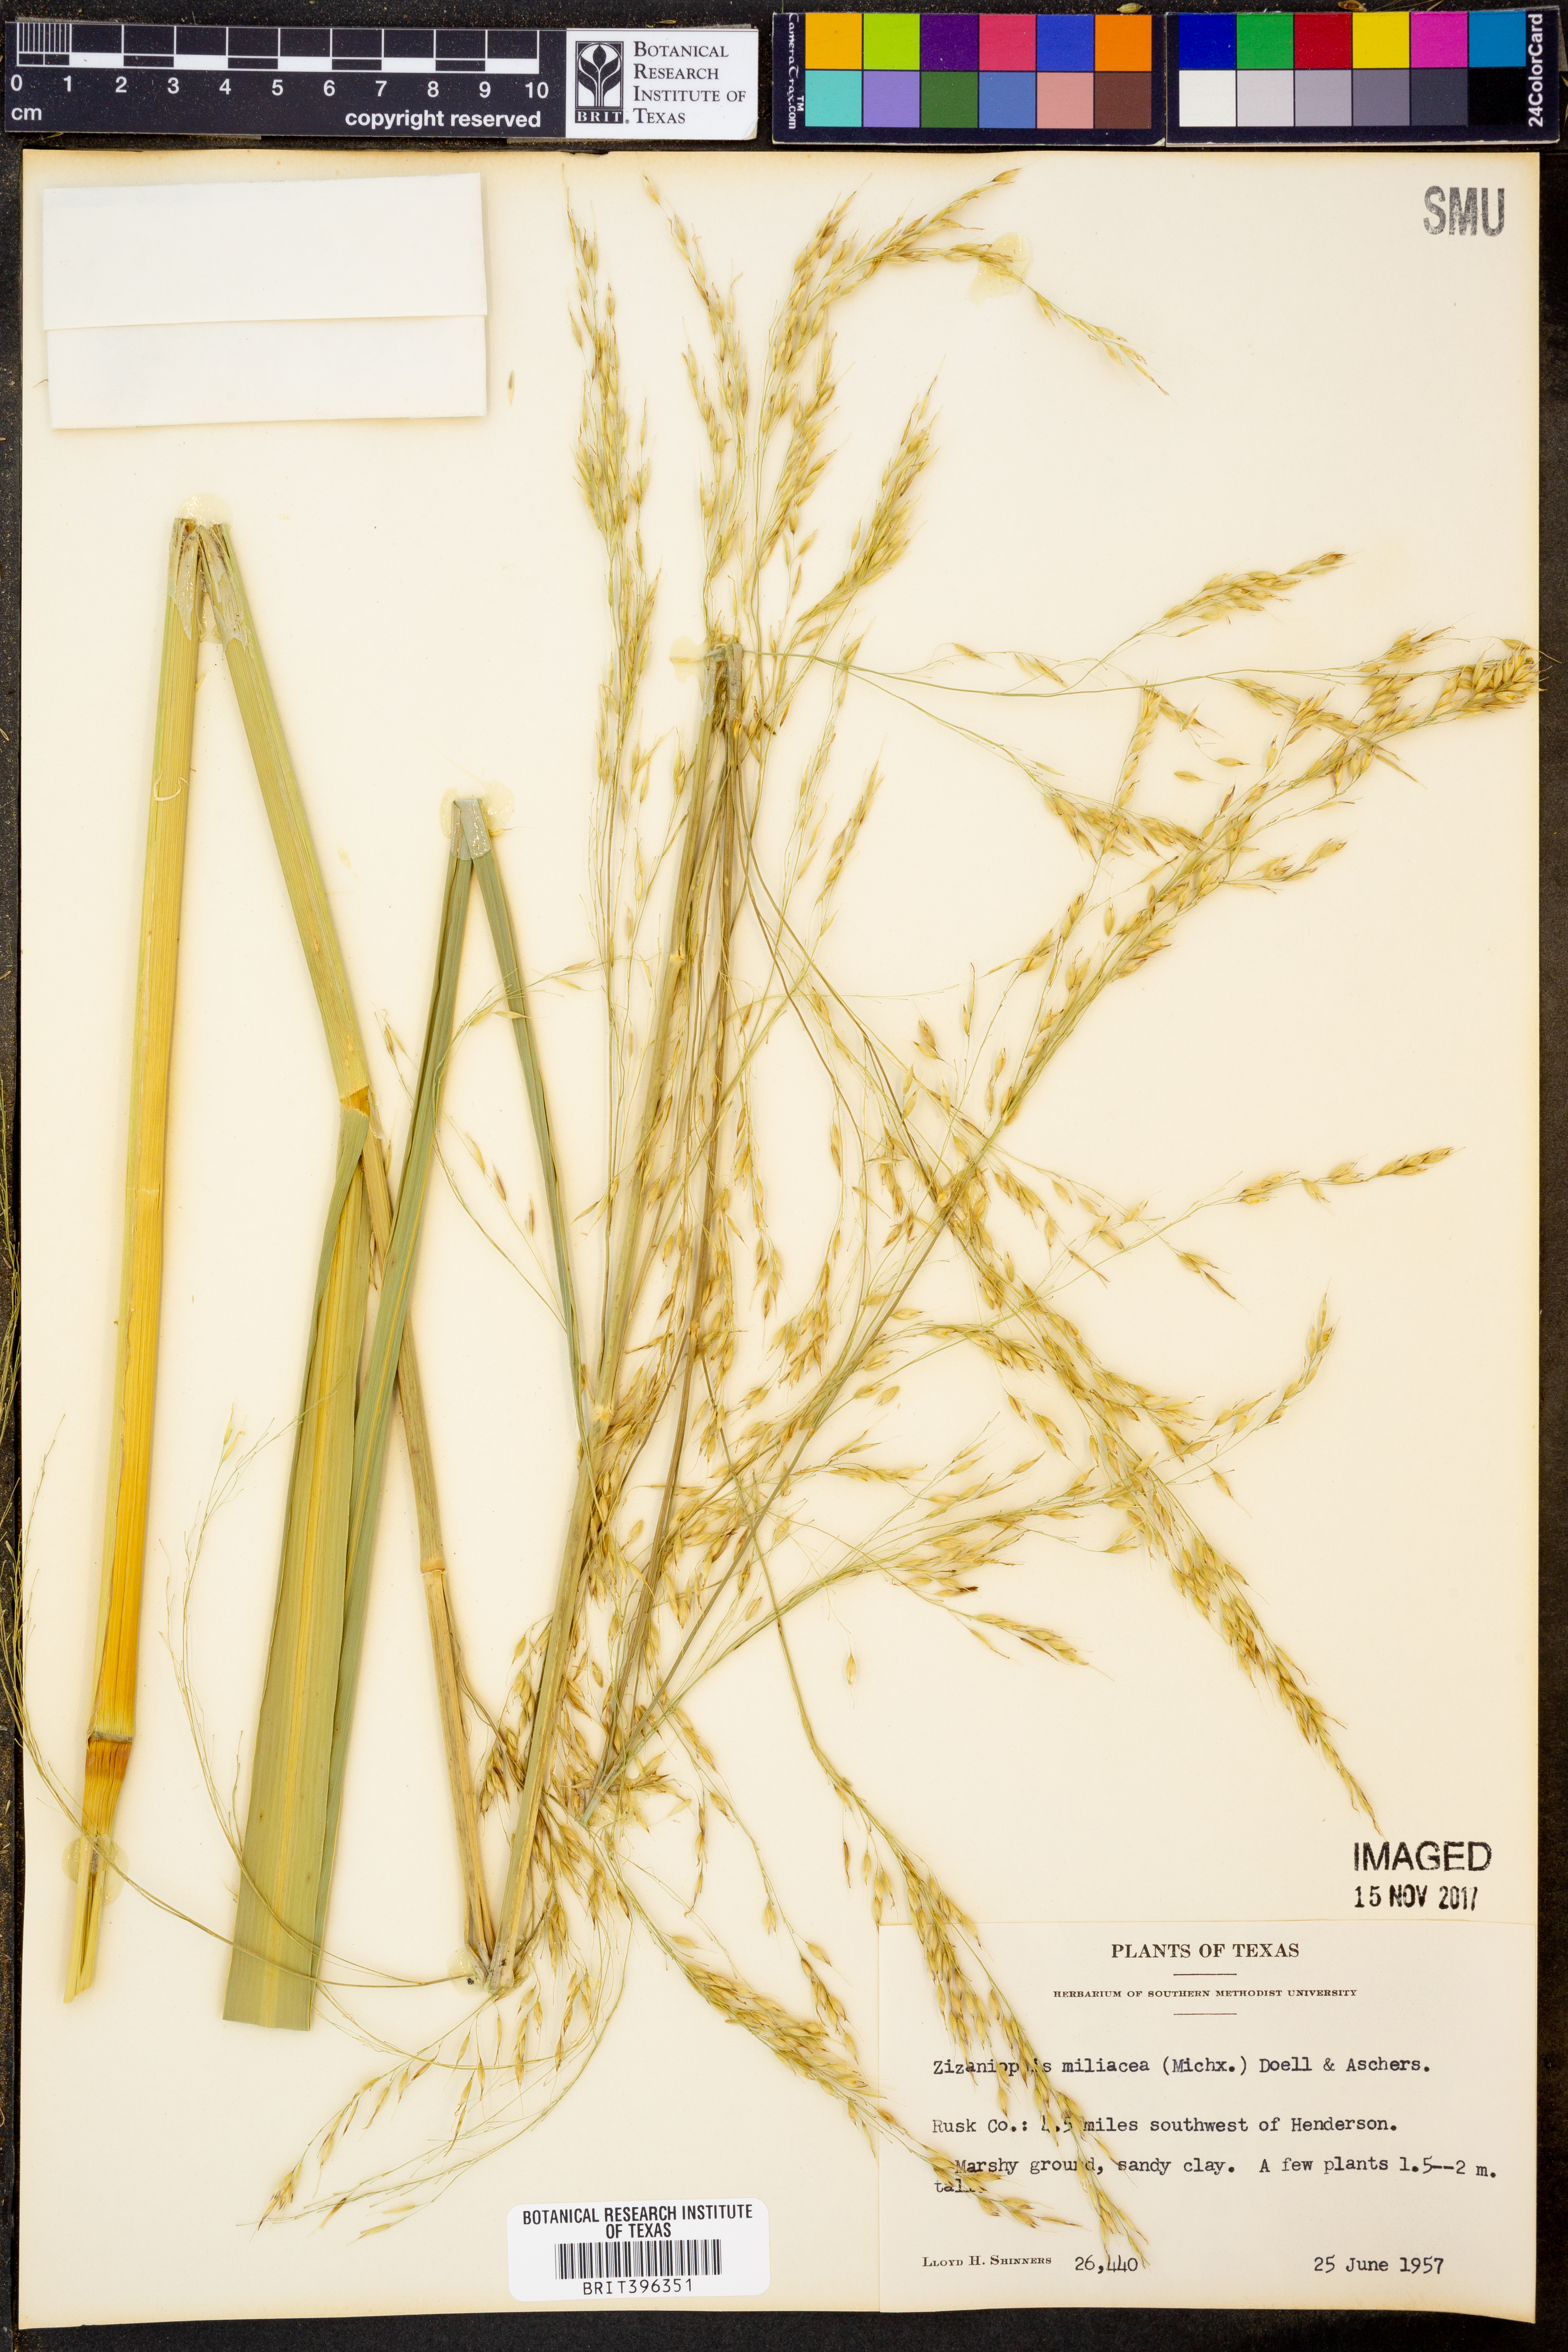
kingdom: Plantae
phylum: Tracheophyta
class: Liliopsida
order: Poales
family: Poaceae
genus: Zizaniopsis
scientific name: Zizaniopsis miliacea
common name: Giant-cutgrass
